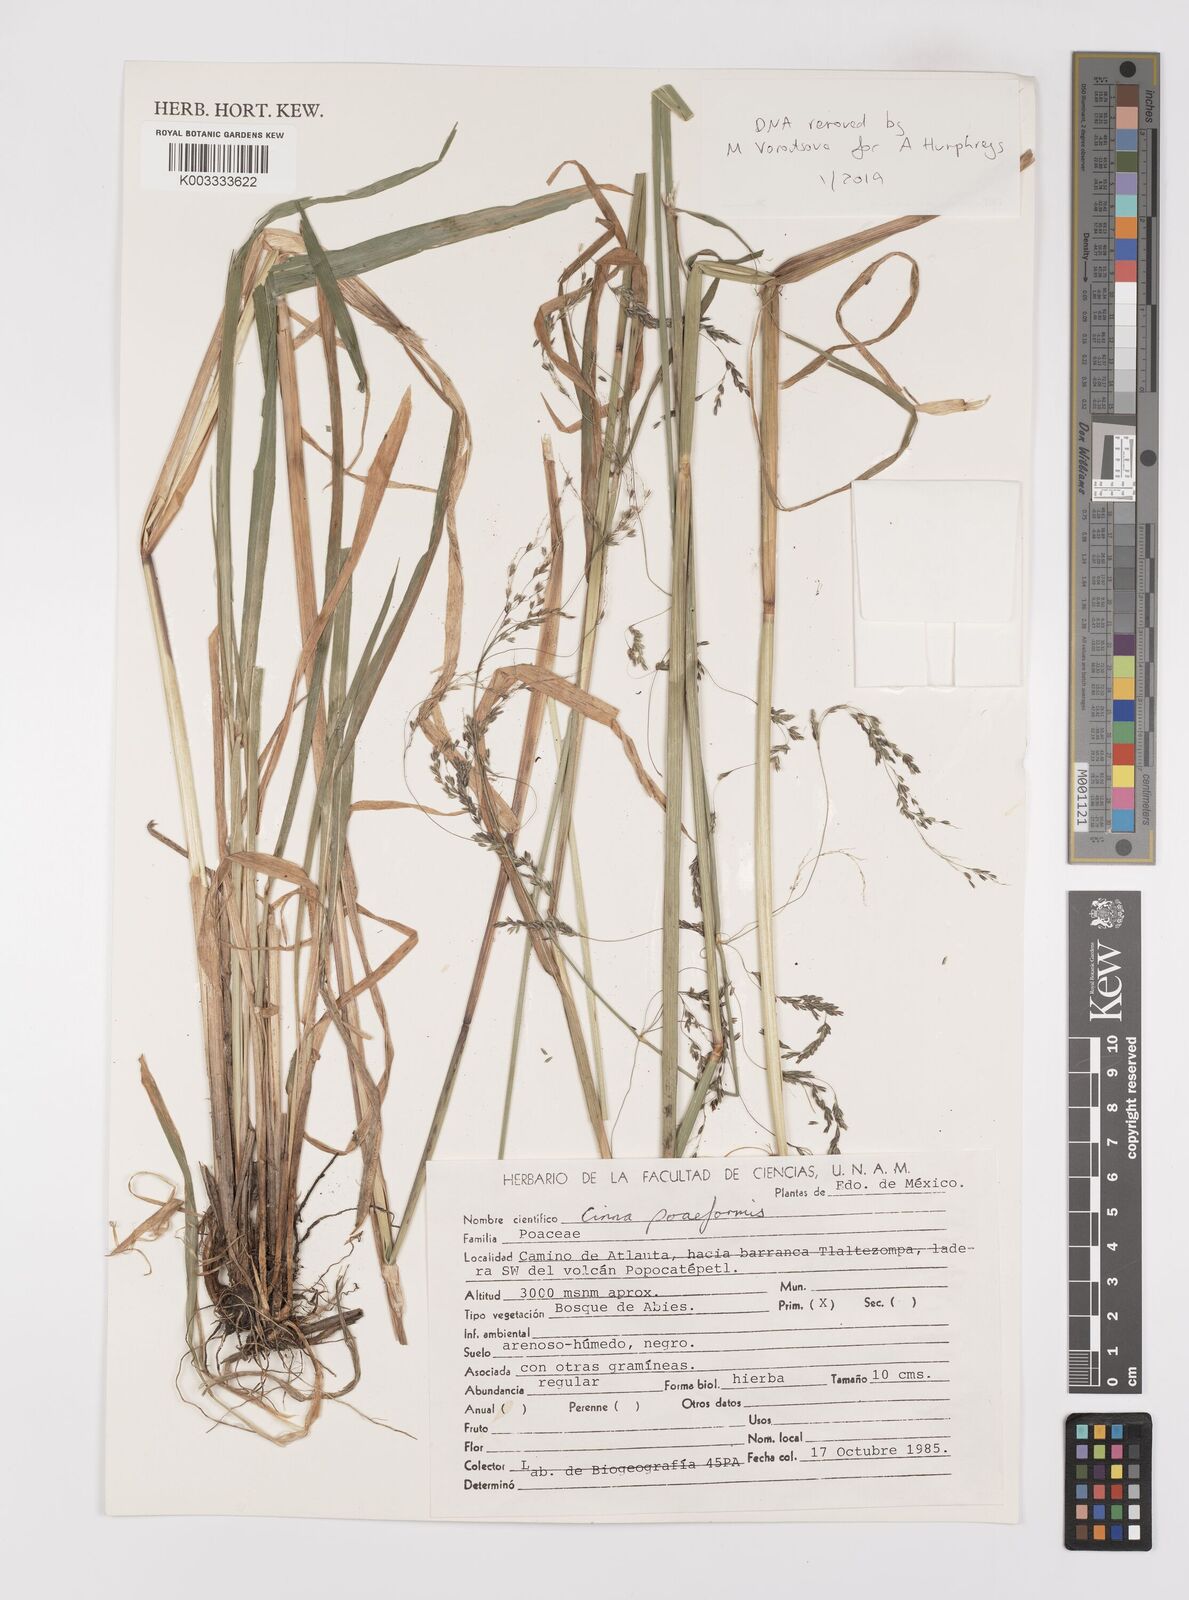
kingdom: Plantae
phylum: Tracheophyta
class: Liliopsida
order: Poales
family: Poaceae
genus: Cinnastrum
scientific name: Cinnastrum poiforme
